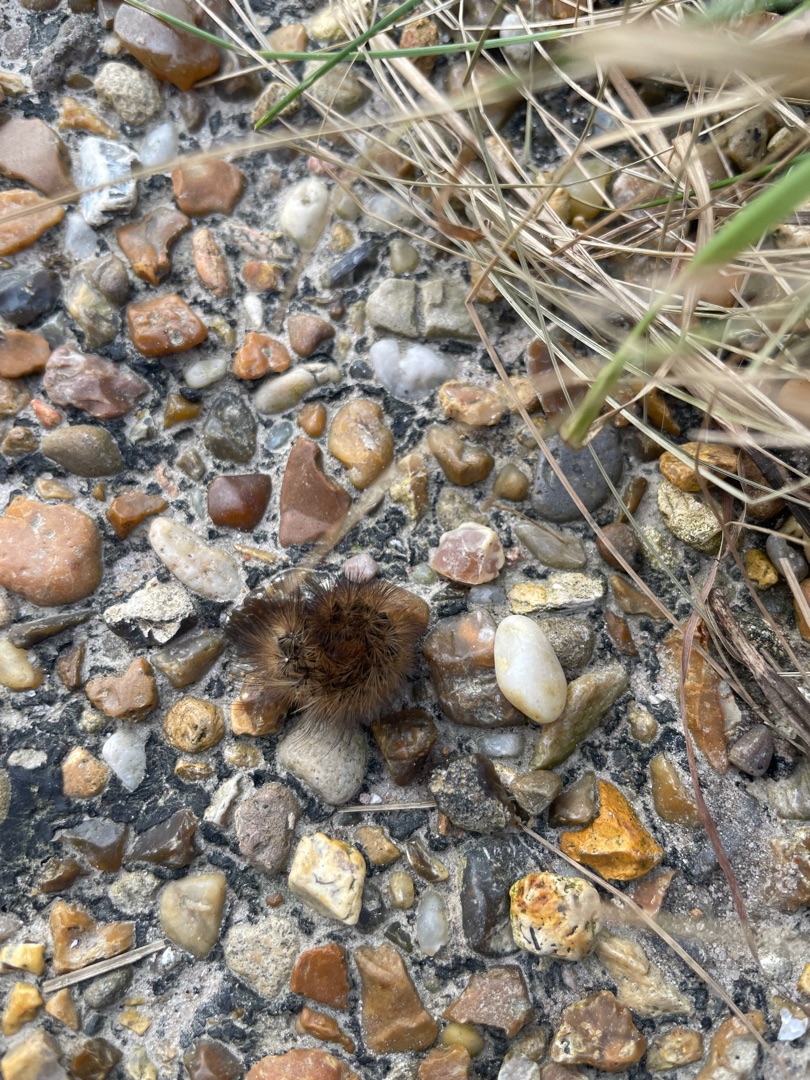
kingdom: Animalia
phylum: Arthropoda
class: Insecta
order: Lepidoptera
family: Erebidae
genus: Phragmatobia
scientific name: Phragmatobia fuliginosa
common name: Kanelbjørn
